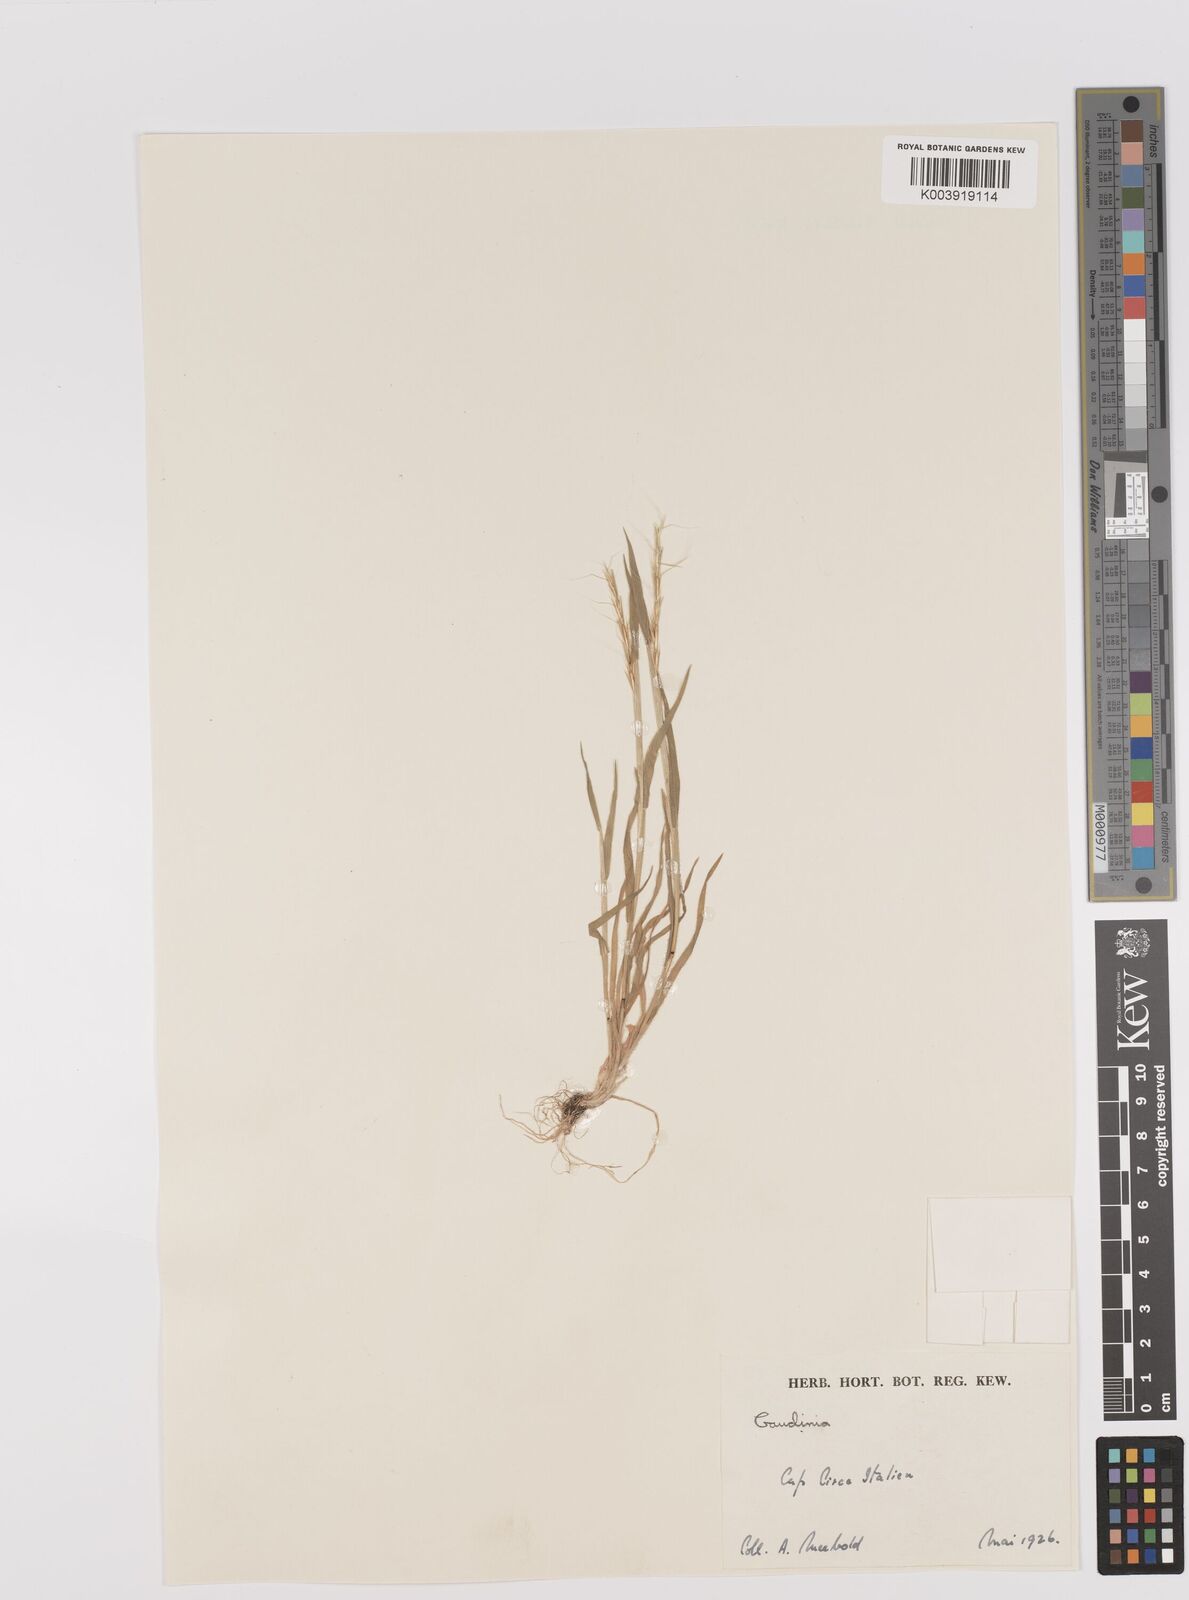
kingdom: Plantae
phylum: Tracheophyta
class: Liliopsida
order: Poales
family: Poaceae
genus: Gaudinia
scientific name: Gaudinia fragilis
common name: French oat-grass
